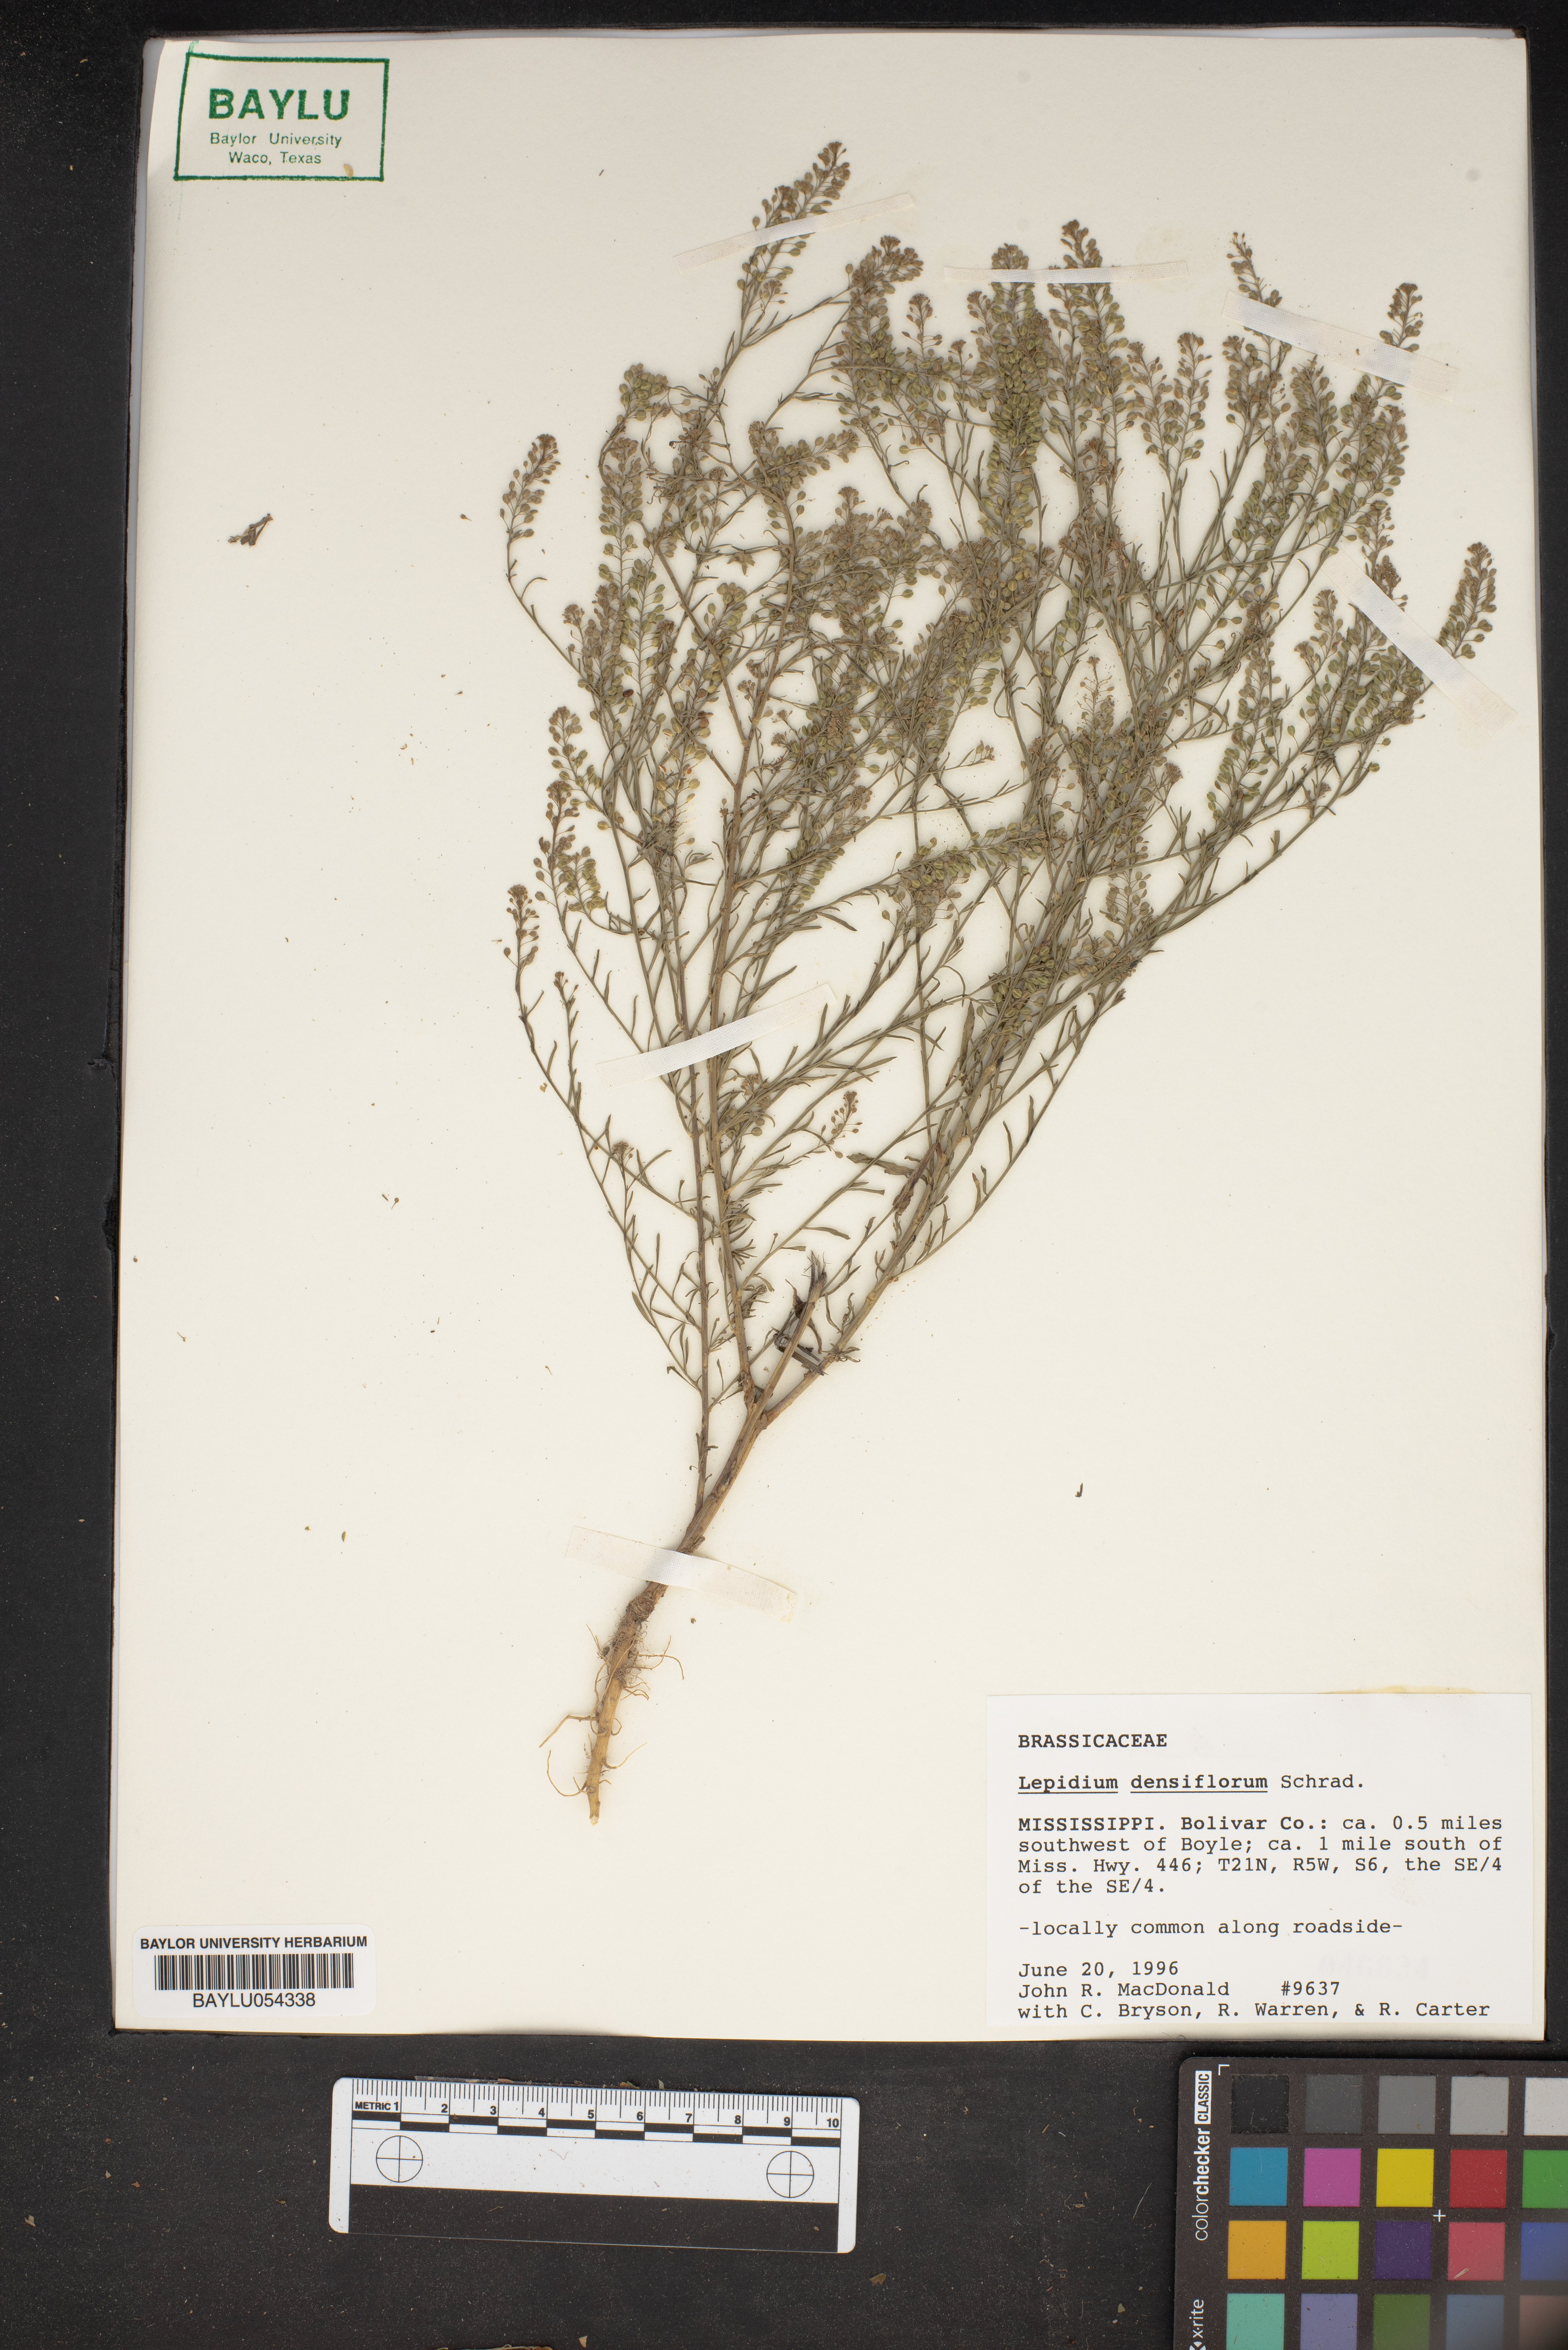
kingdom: Plantae
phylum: Tracheophyta
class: Magnoliopsida
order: Brassicales
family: Brassicaceae
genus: Lepidium
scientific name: Lepidium densiflorum
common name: Miner's pepperwort
